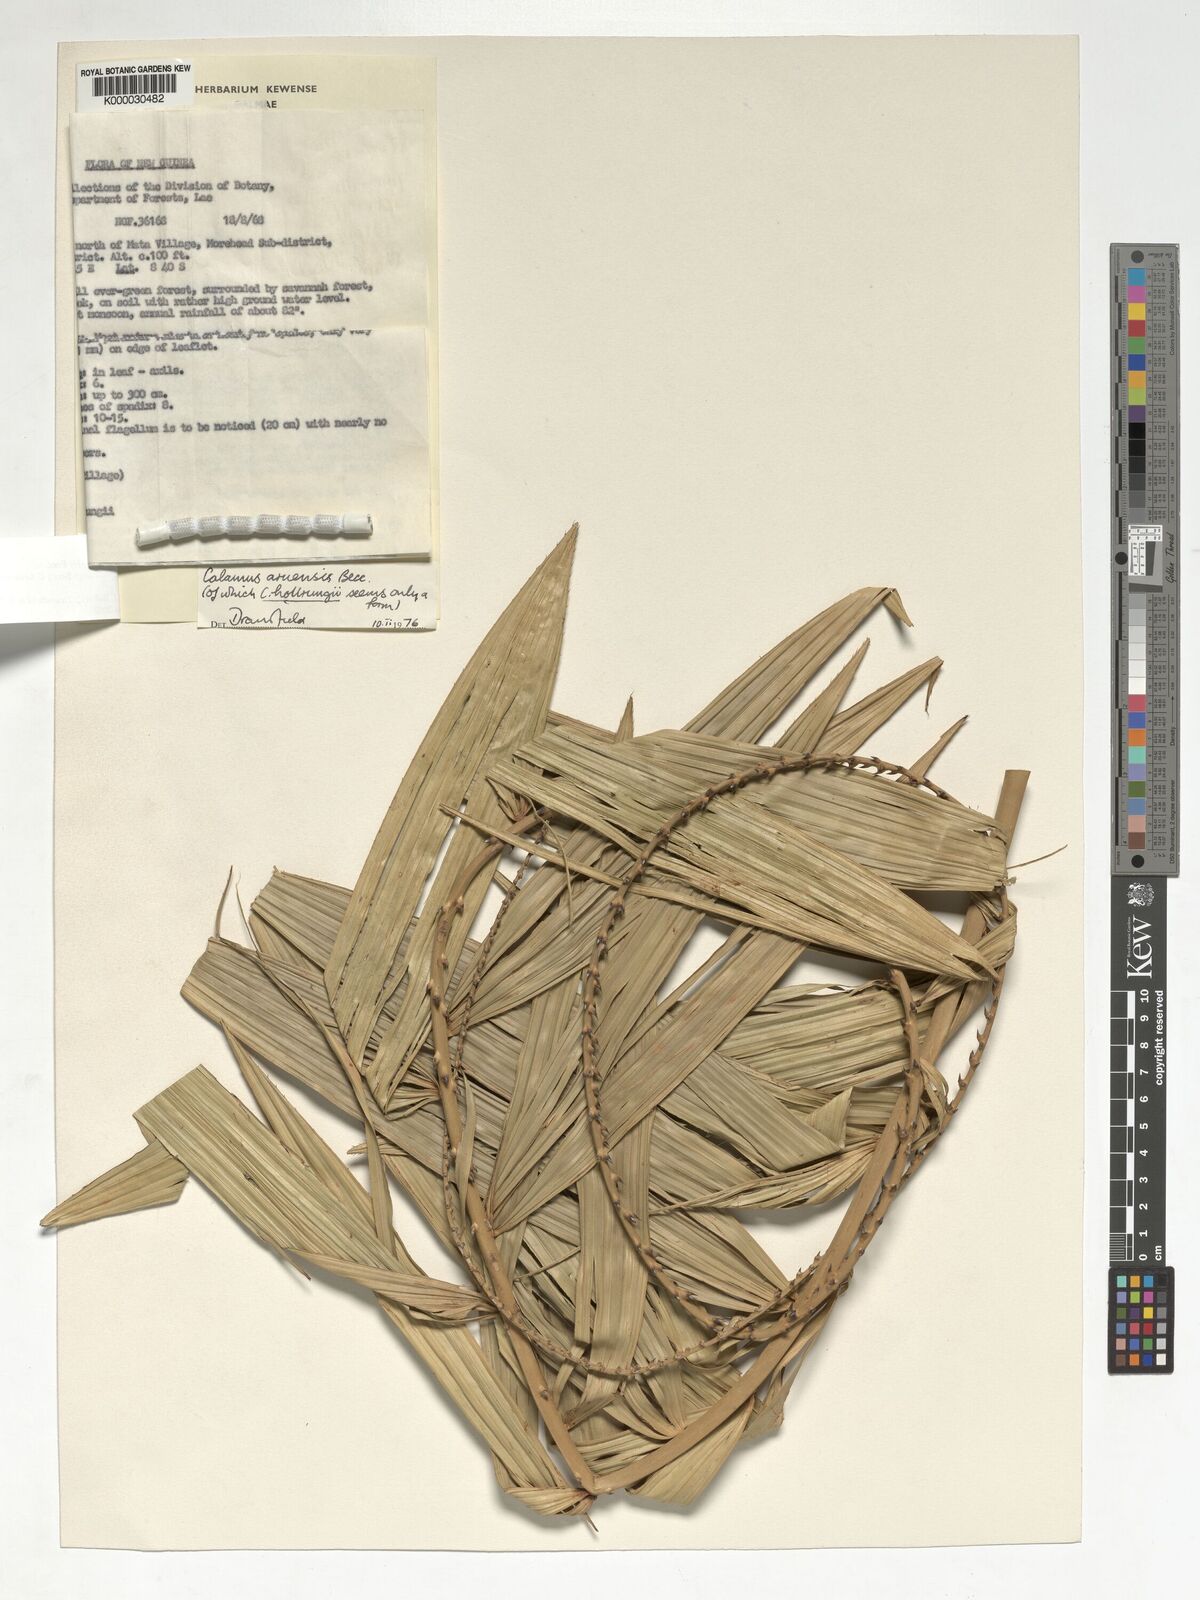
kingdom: Plantae
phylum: Tracheophyta
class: Liliopsida
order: Arecales
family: Arecaceae
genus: Calamus
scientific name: Calamus aruensis
